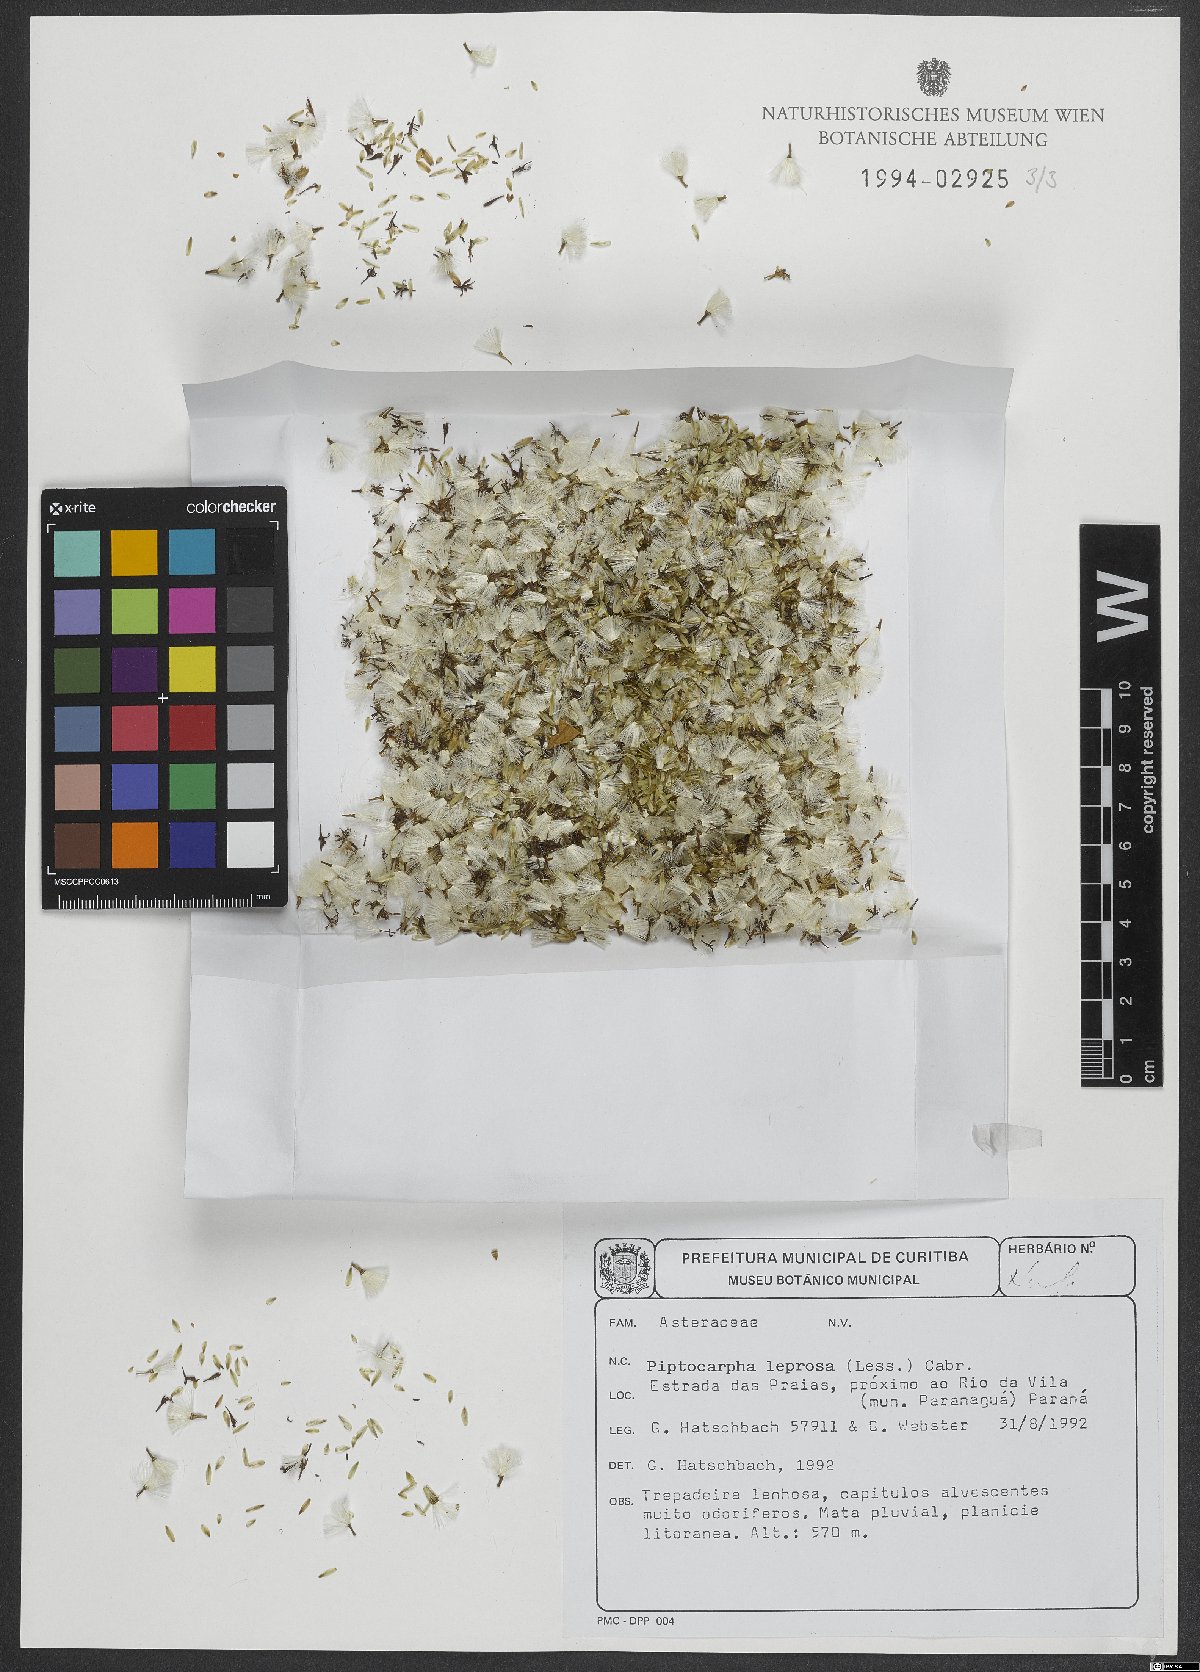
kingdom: Plantae
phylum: Tracheophyta
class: Magnoliopsida
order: Asterales
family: Asteraceae
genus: Piptocarpha
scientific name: Piptocarpha leprosa
